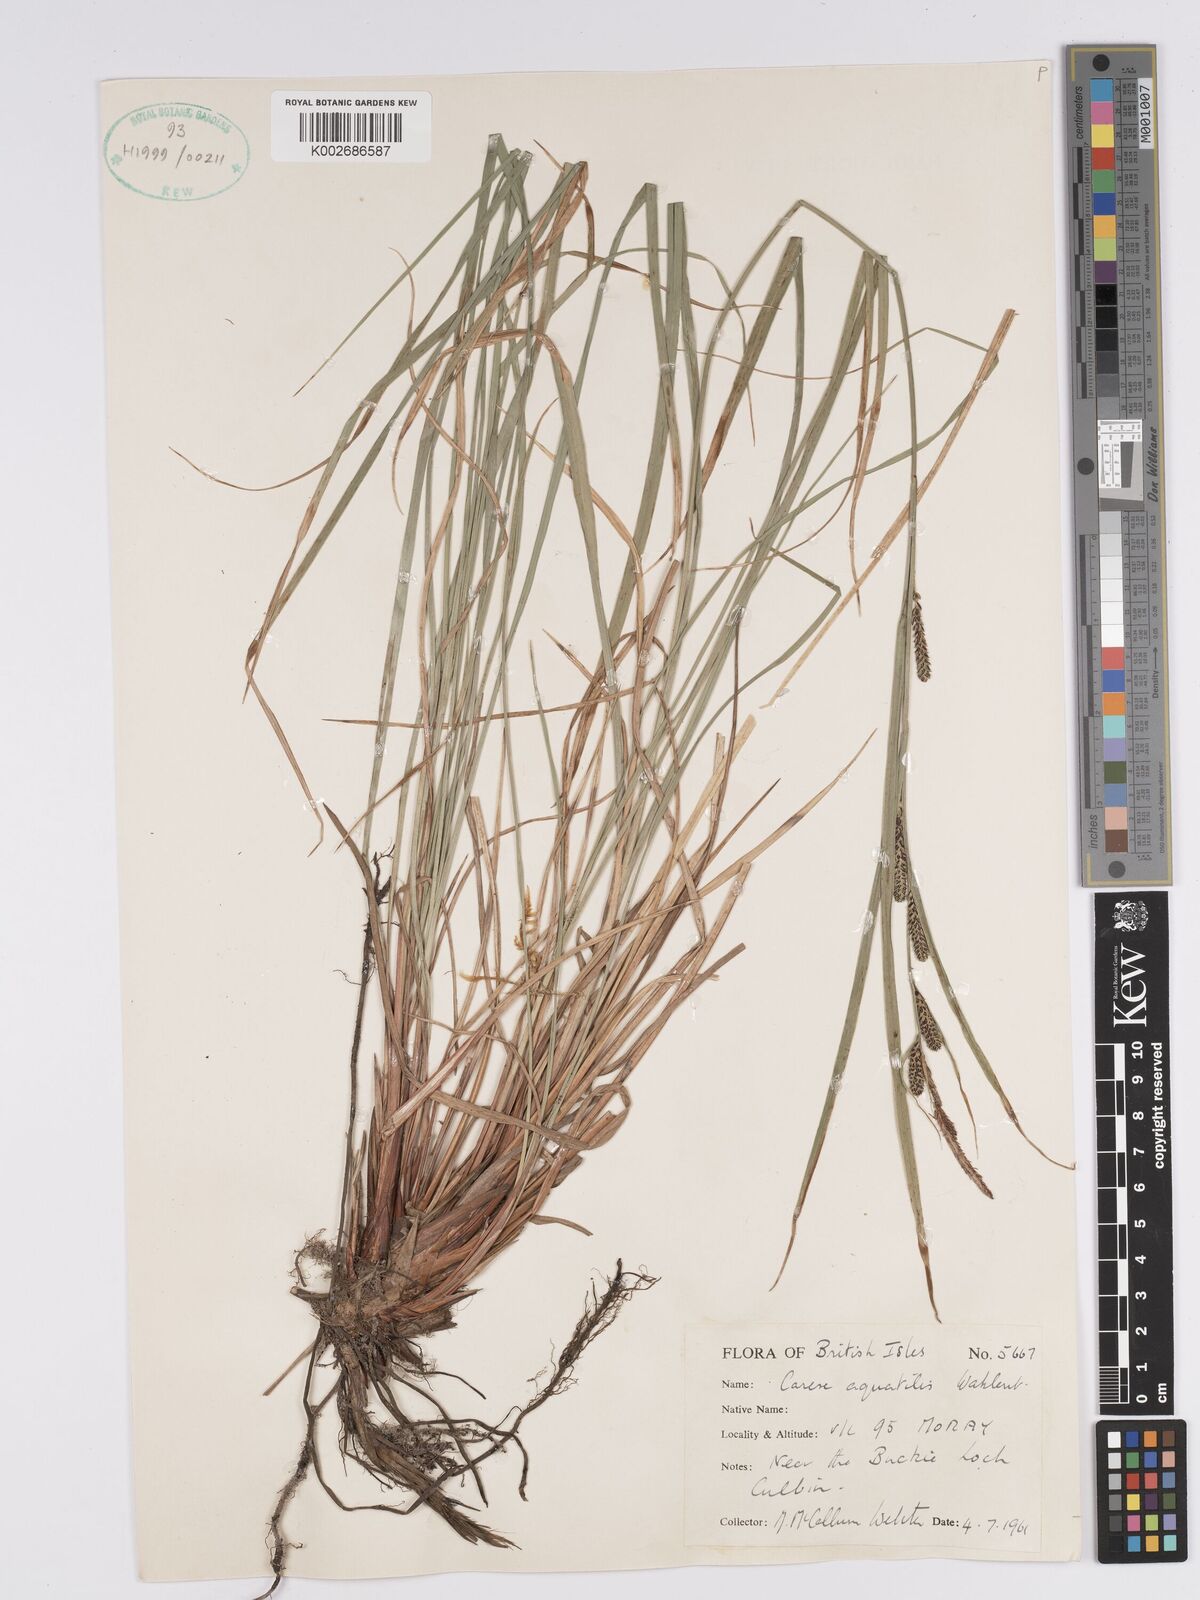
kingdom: Plantae
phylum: Tracheophyta
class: Liliopsida
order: Poales
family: Cyperaceae
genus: Carex
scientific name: Carex aquatilis
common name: Water sedge
